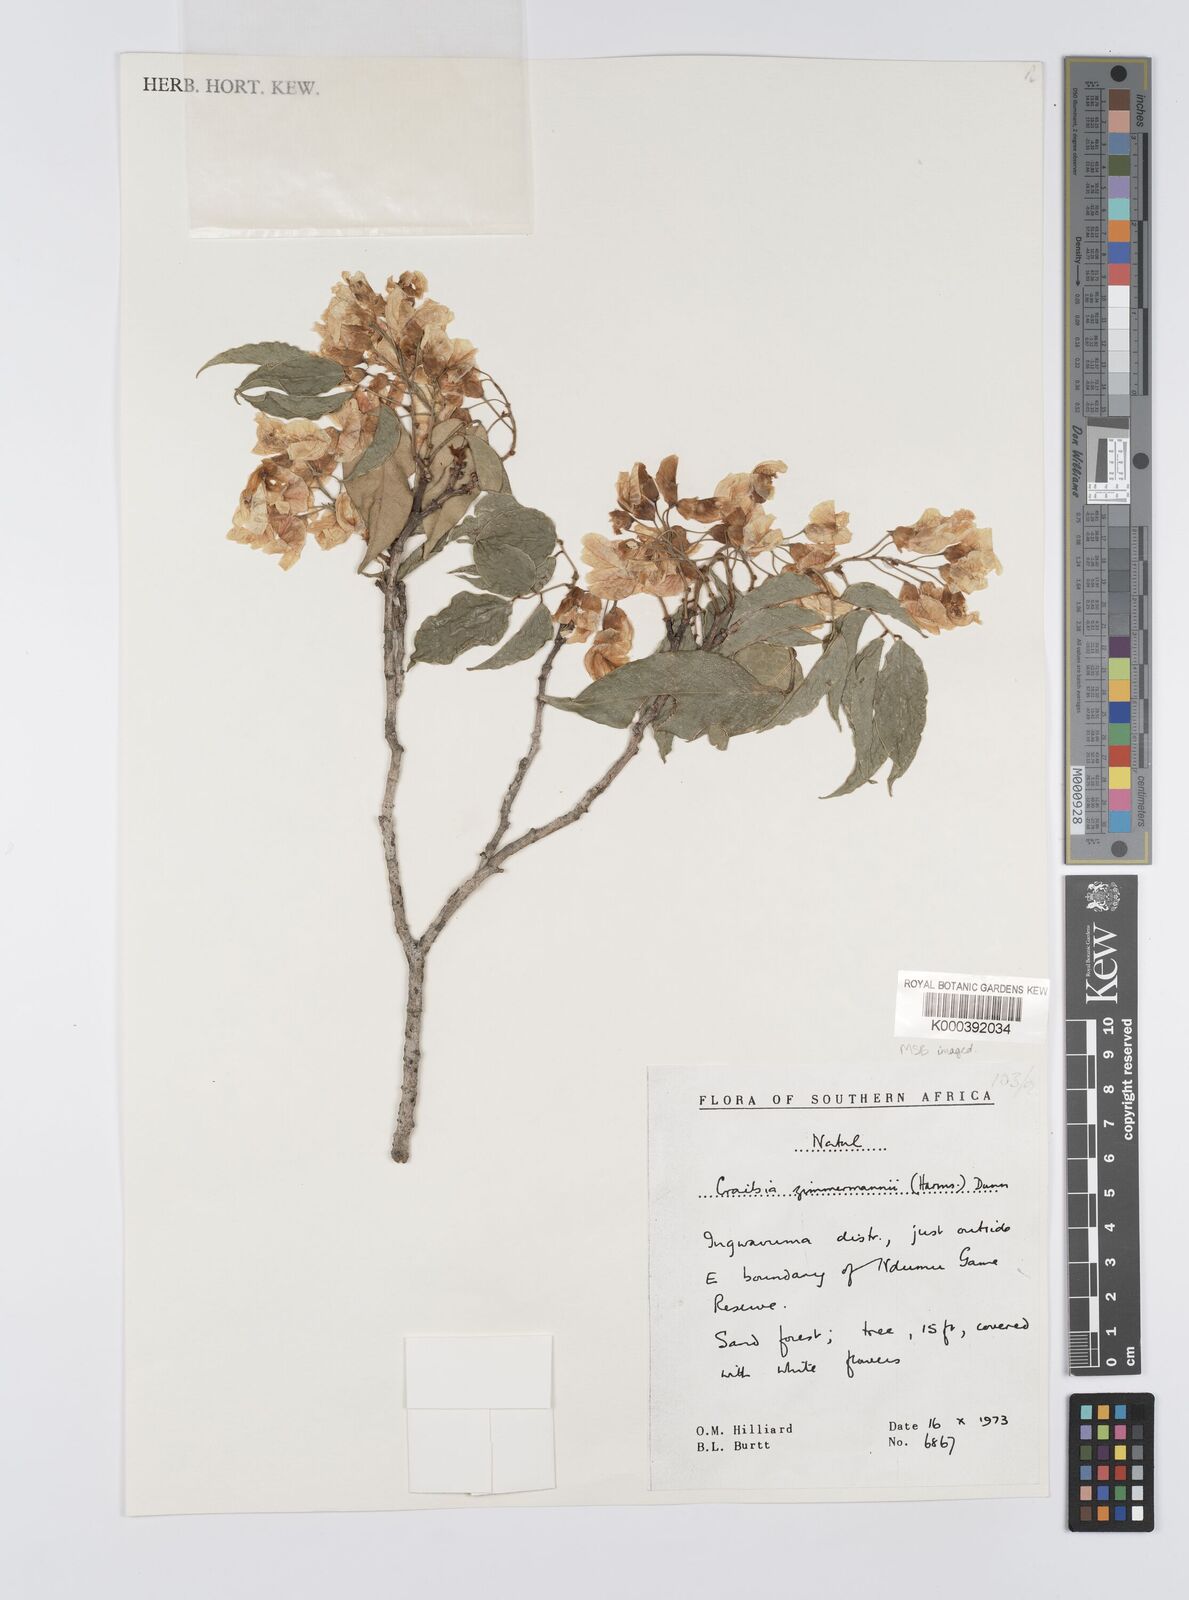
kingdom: Plantae
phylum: Tracheophyta
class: Magnoliopsida
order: Fabales
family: Fabaceae
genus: Craibia
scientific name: Craibia zimmermannii
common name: Sandforest pea-wood
